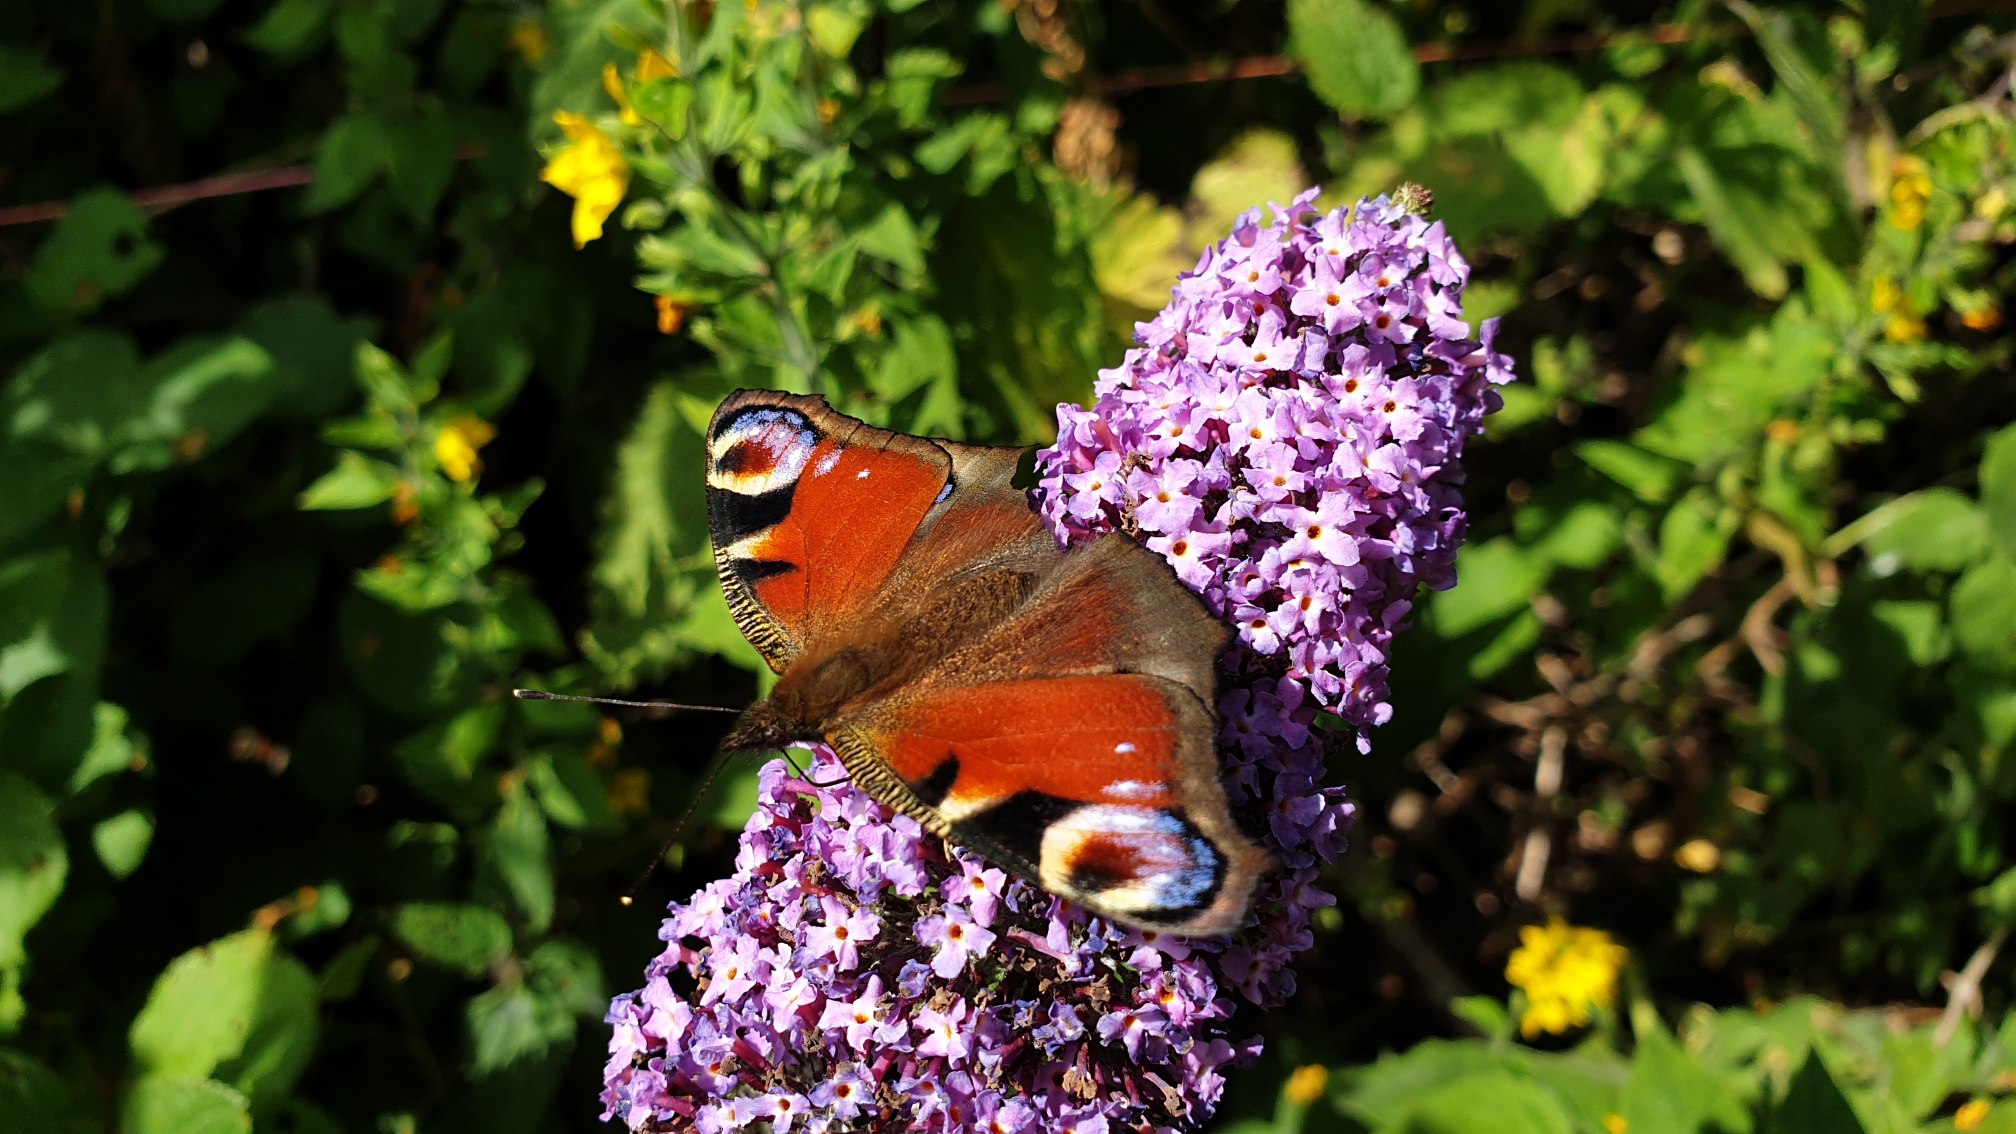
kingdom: Animalia
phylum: Arthropoda
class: Insecta
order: Lepidoptera
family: Nymphalidae
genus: Aglais
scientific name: Aglais io
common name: Dagpåfugleøje
